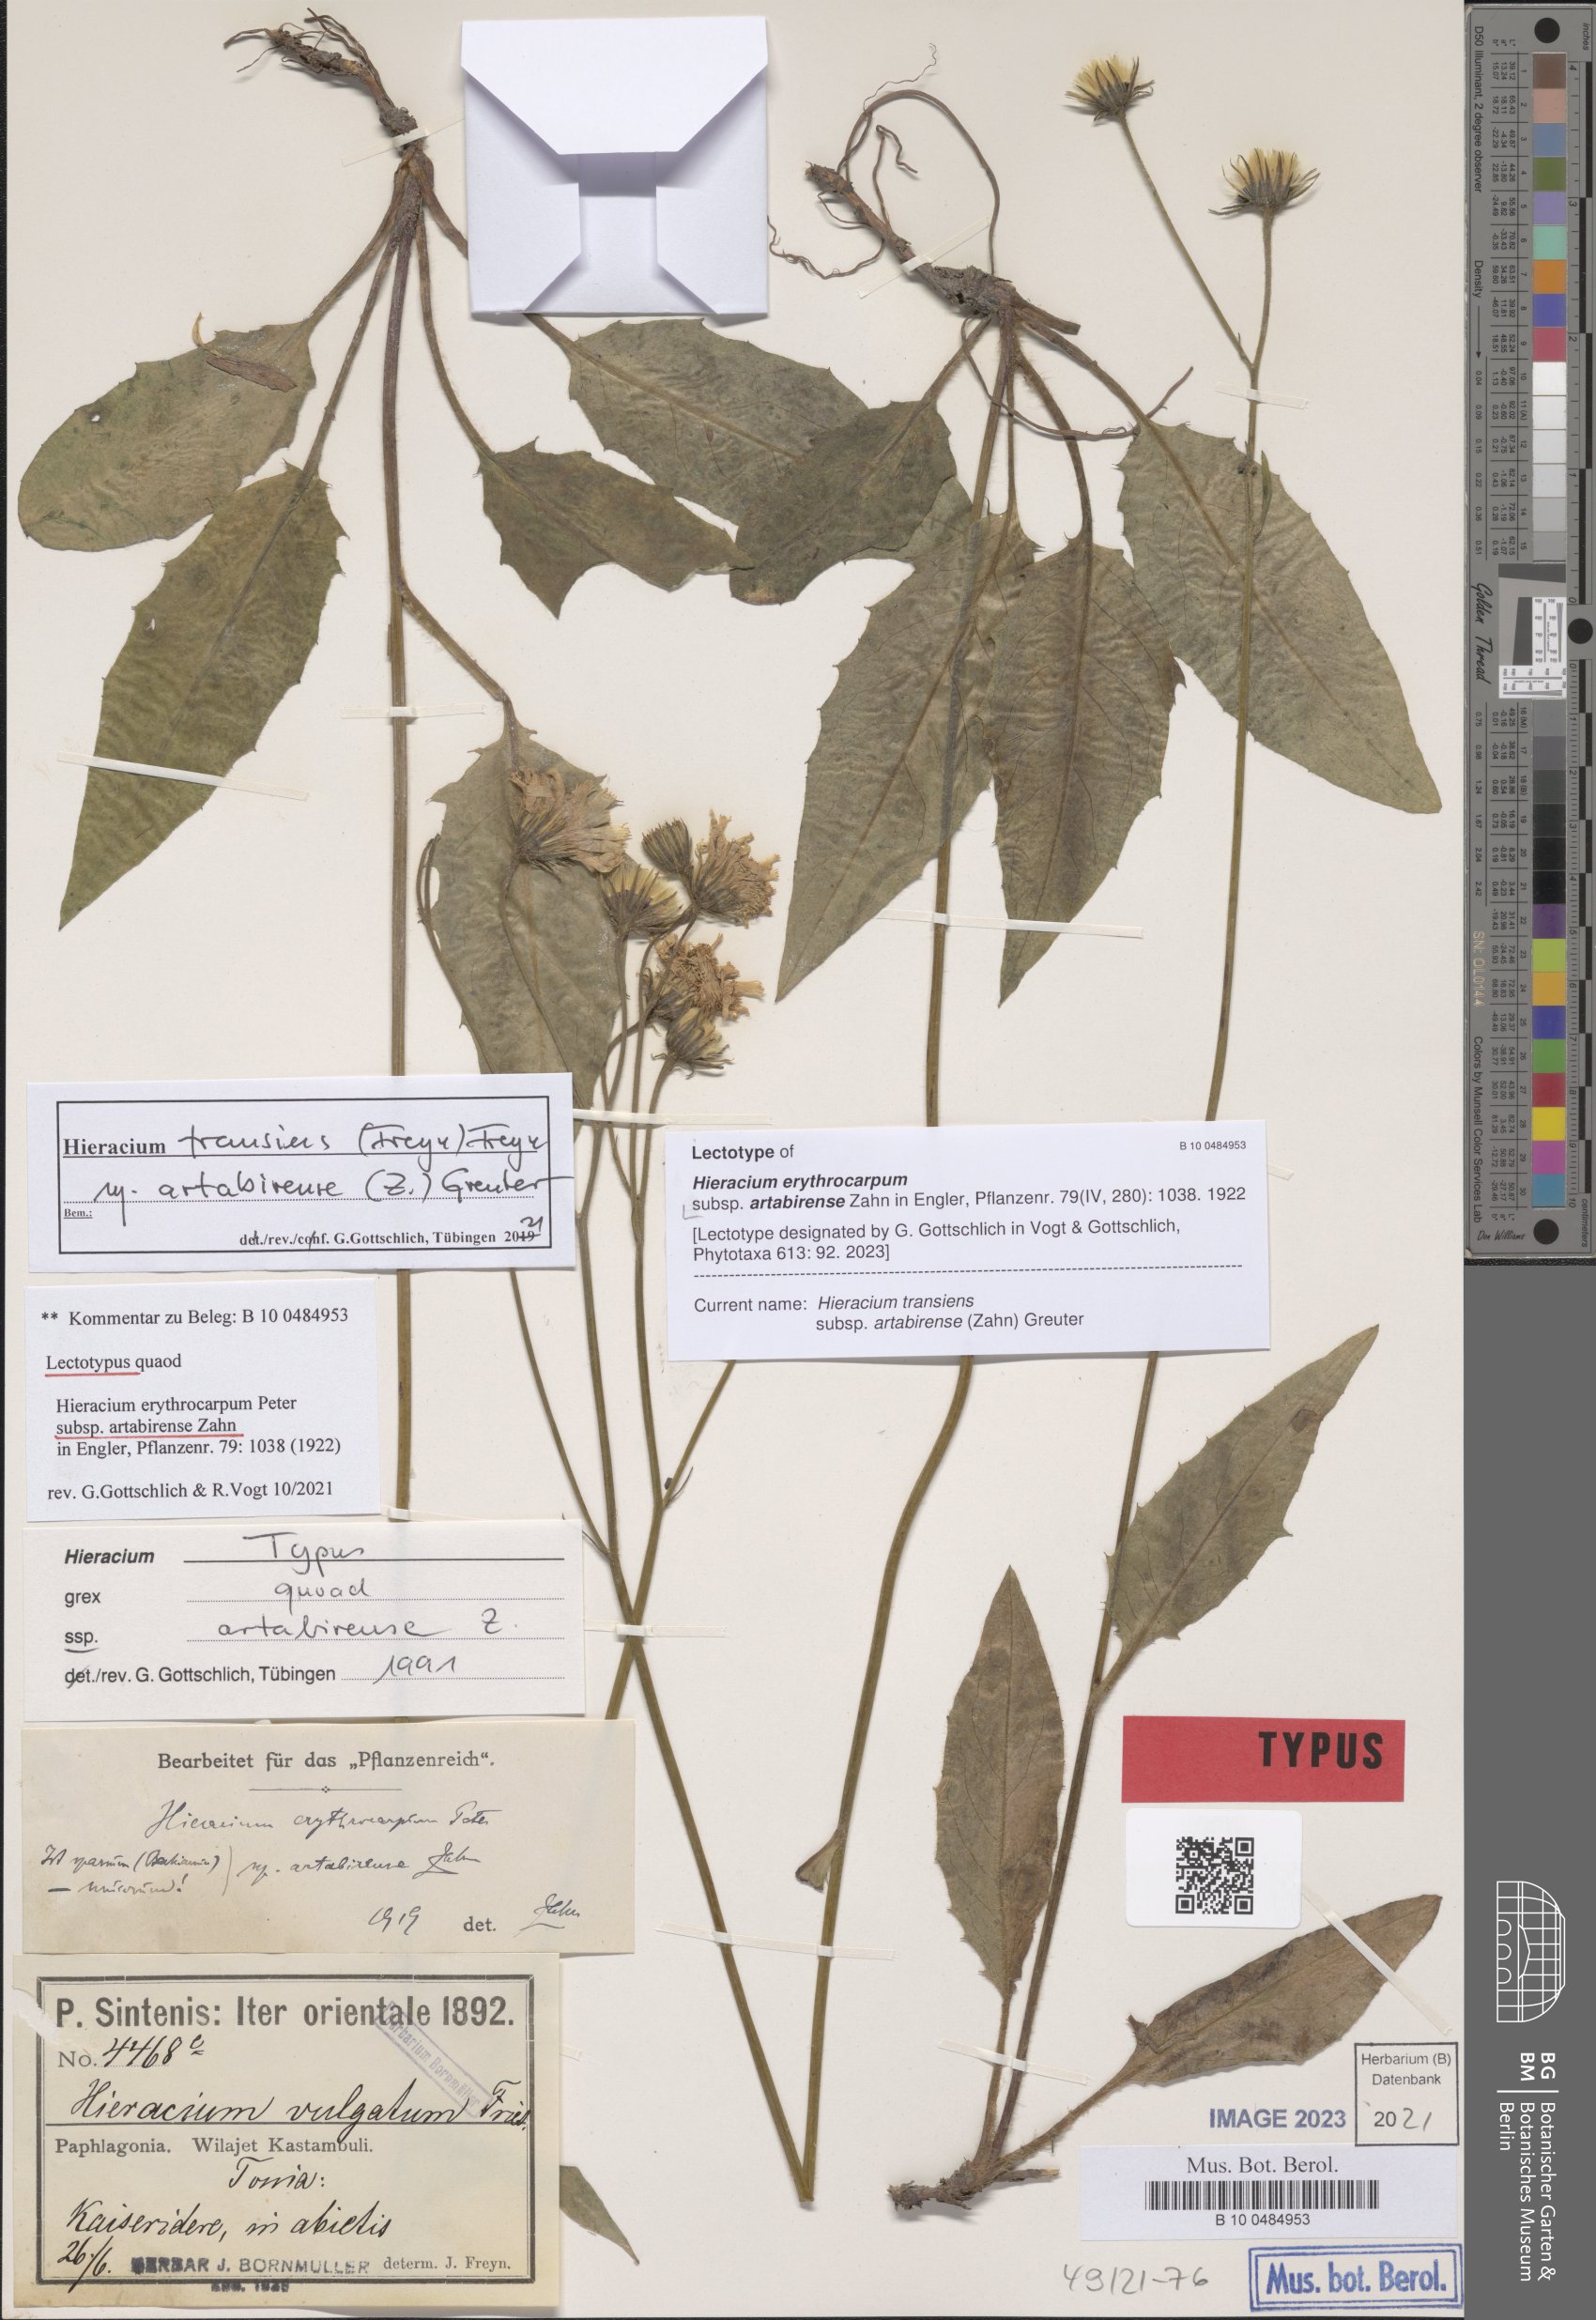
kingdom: Plantae
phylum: Tracheophyta
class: Magnoliopsida
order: Asterales
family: Asteraceae
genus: Hieracium
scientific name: Hieracium transiens
